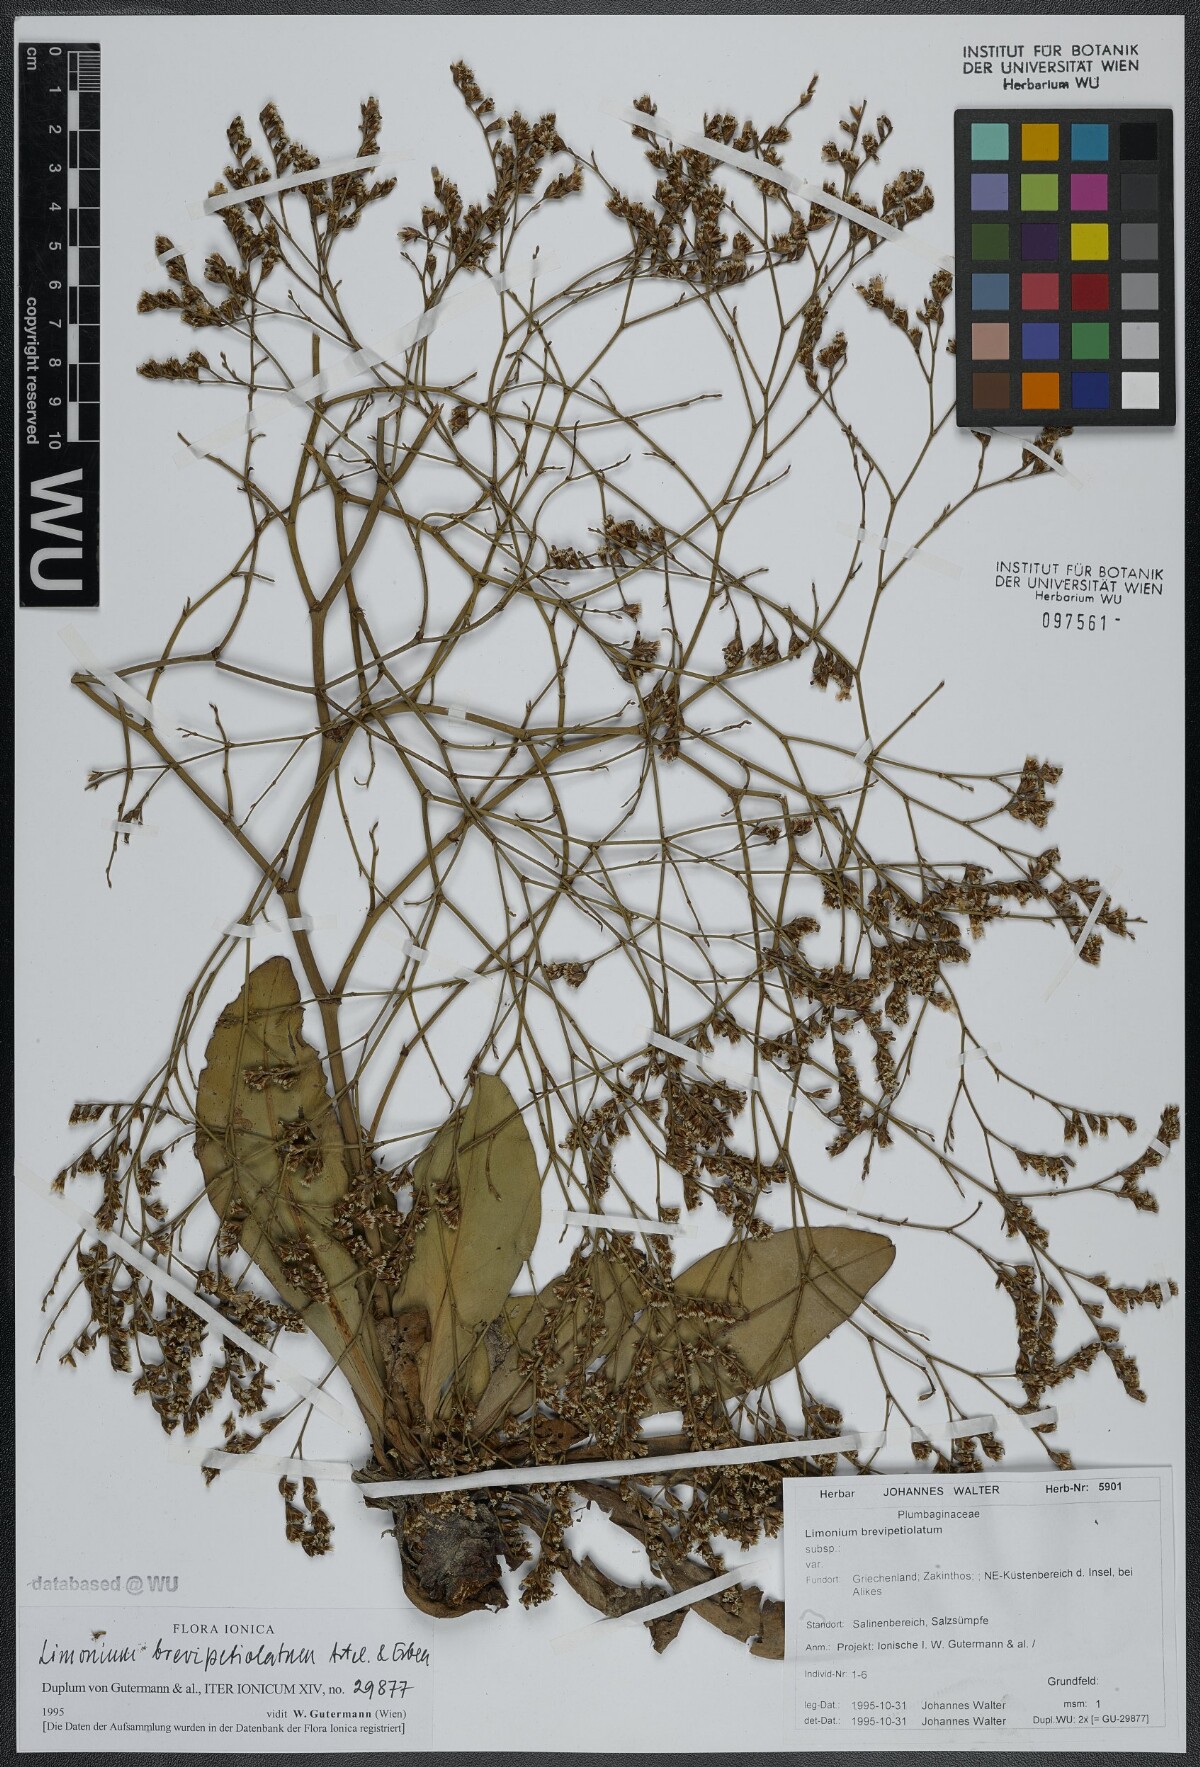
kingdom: Plantae
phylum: Tracheophyta
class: Magnoliopsida
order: Caryophyllales
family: Plumbaginaceae
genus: Limonium
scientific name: Limonium brevipetiolatum
